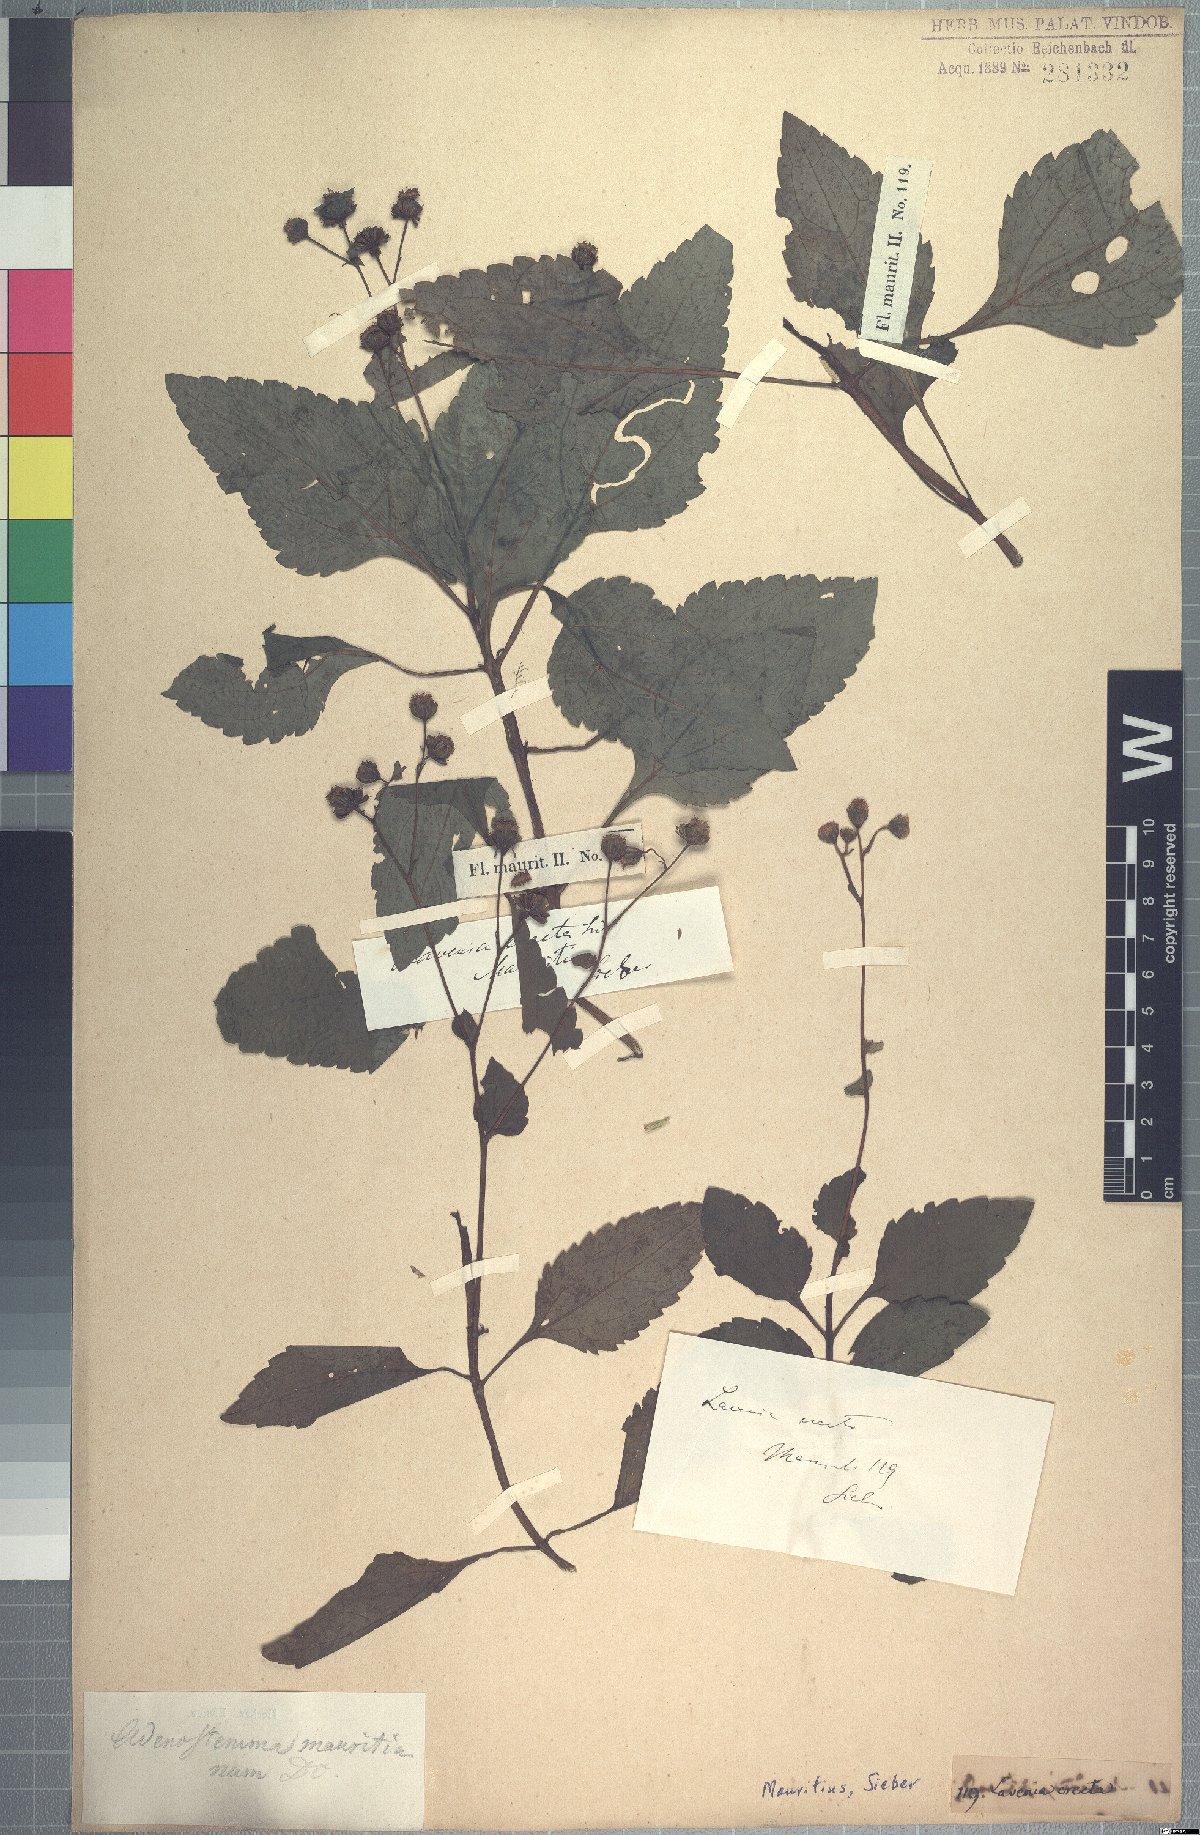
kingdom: Plantae
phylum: Tracheophyta
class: Magnoliopsida
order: Asterales
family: Asteraceae
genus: Adenostemma
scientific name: Adenostemma mauritianum
